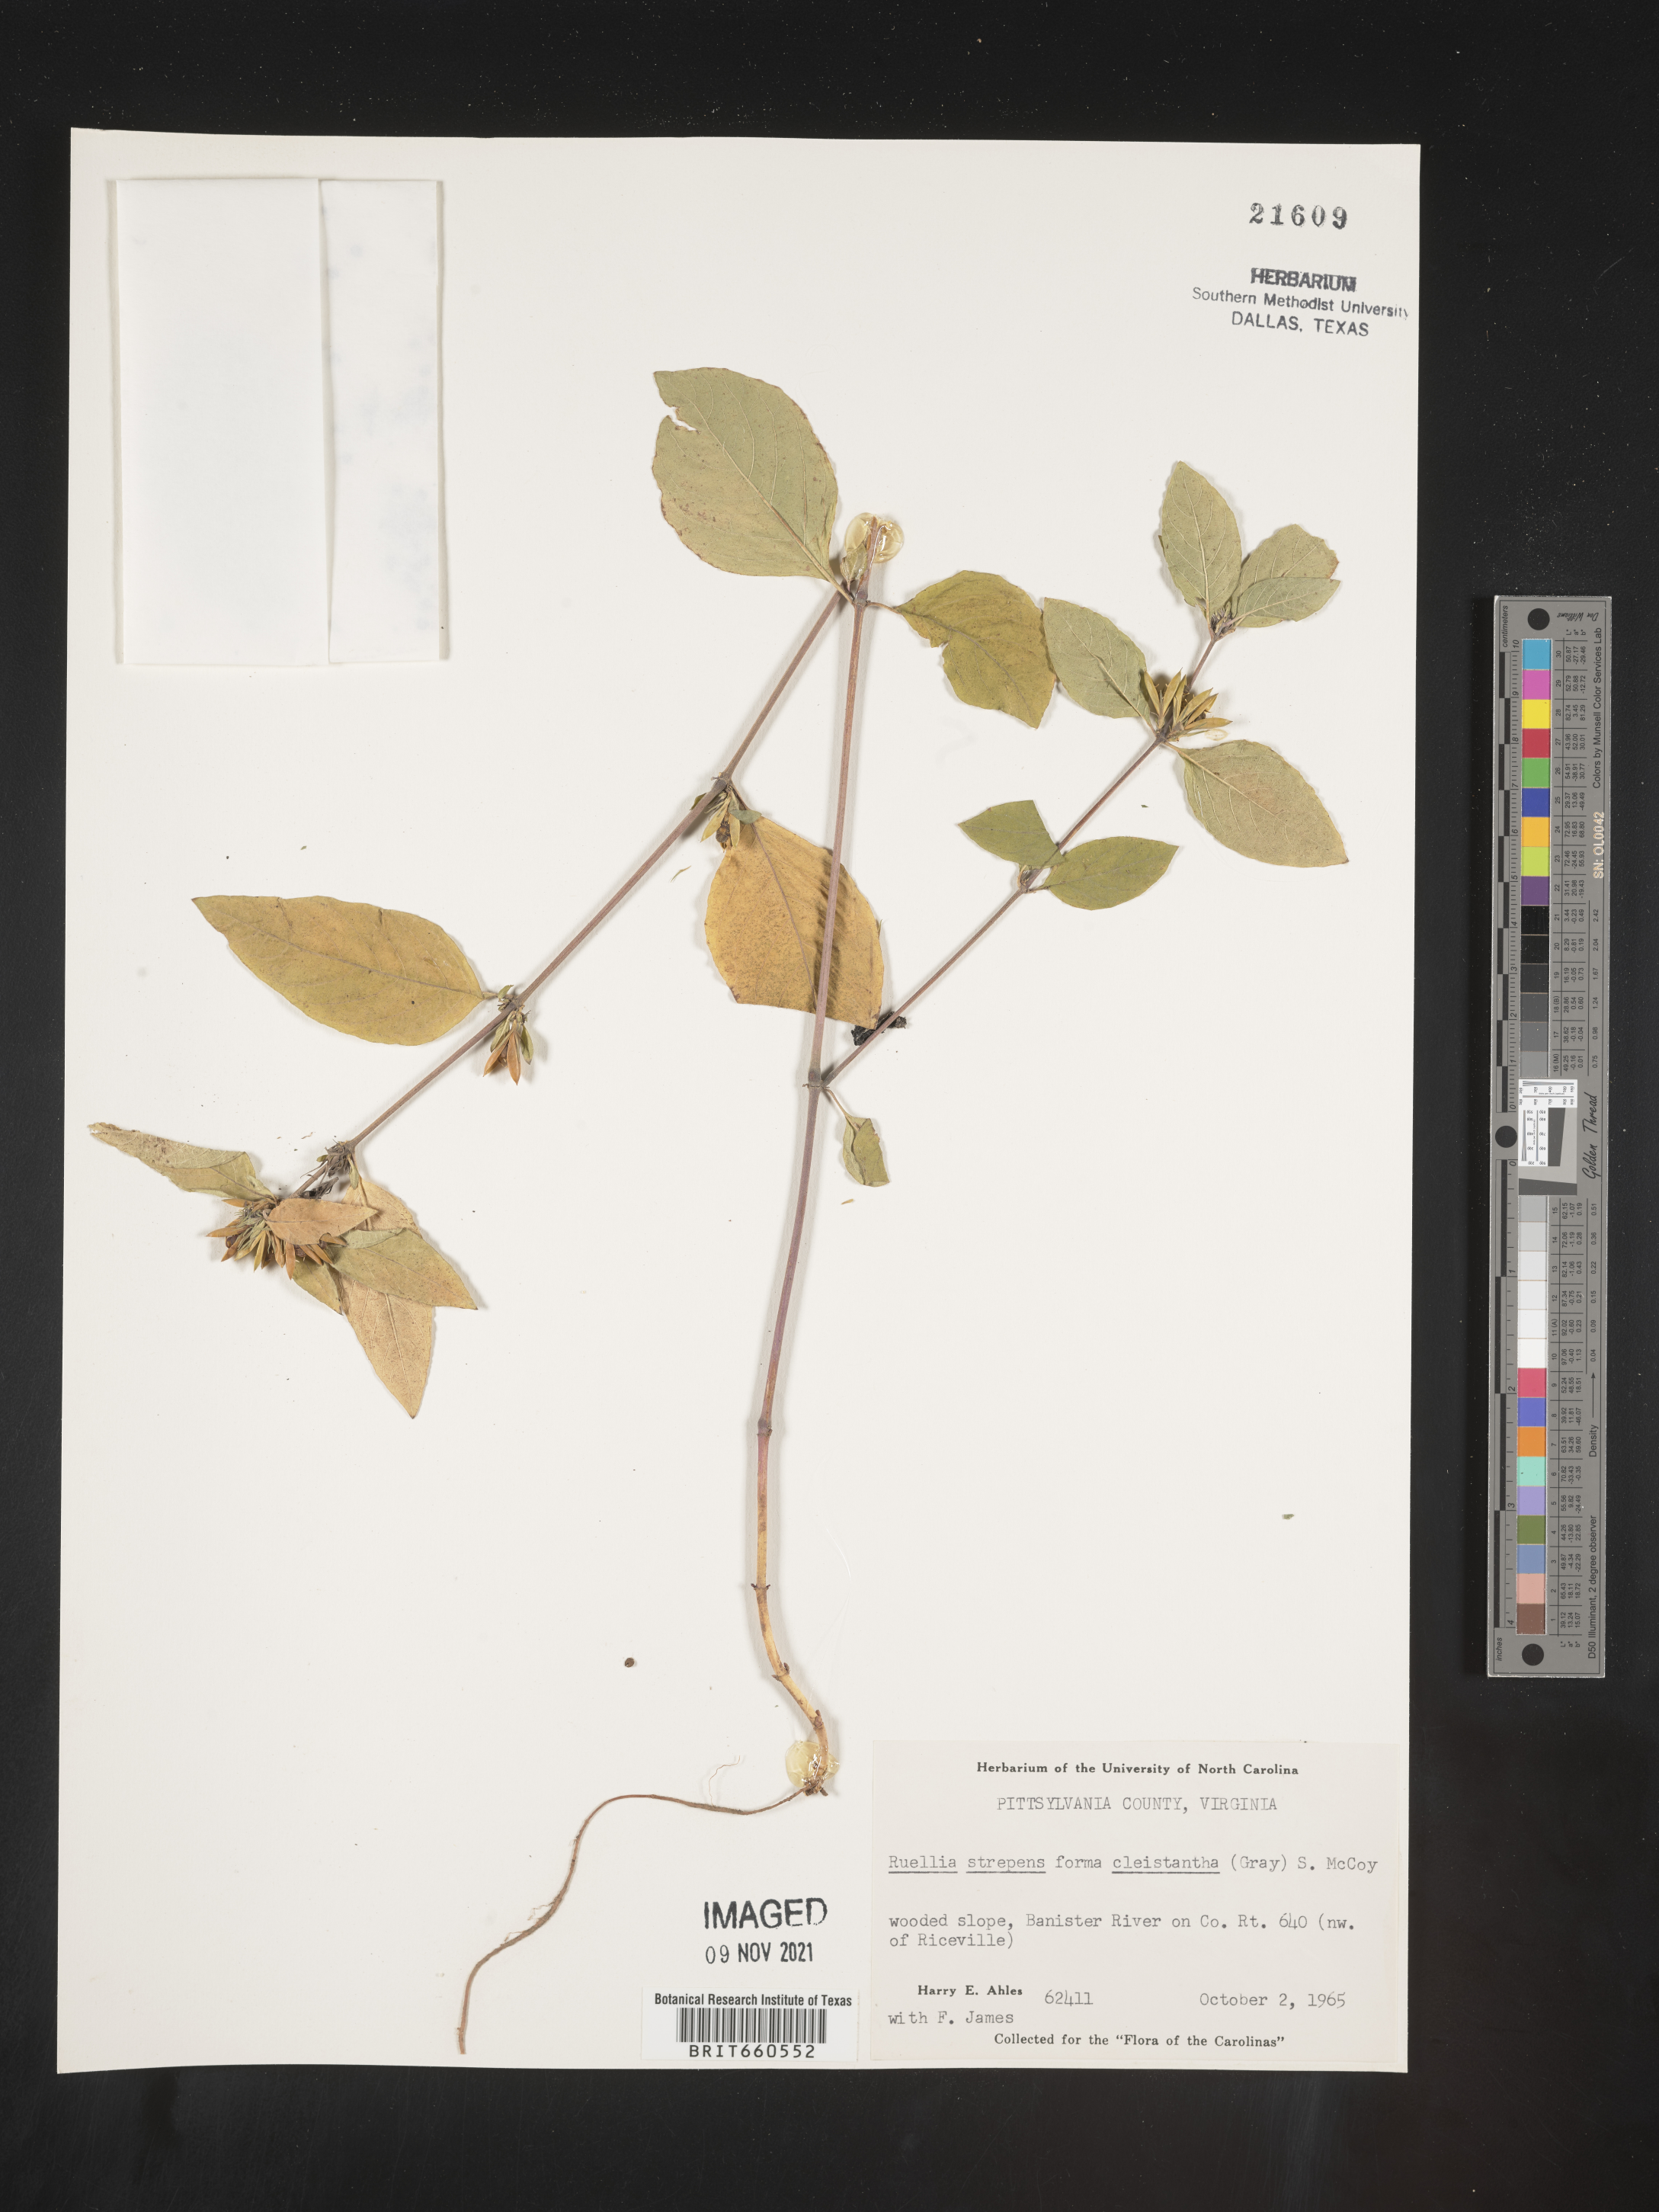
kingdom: Plantae
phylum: Tracheophyta
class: Magnoliopsida
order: Lamiales
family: Acanthaceae
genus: Ruellia
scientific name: Ruellia strepens
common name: Limestone wild petunia
